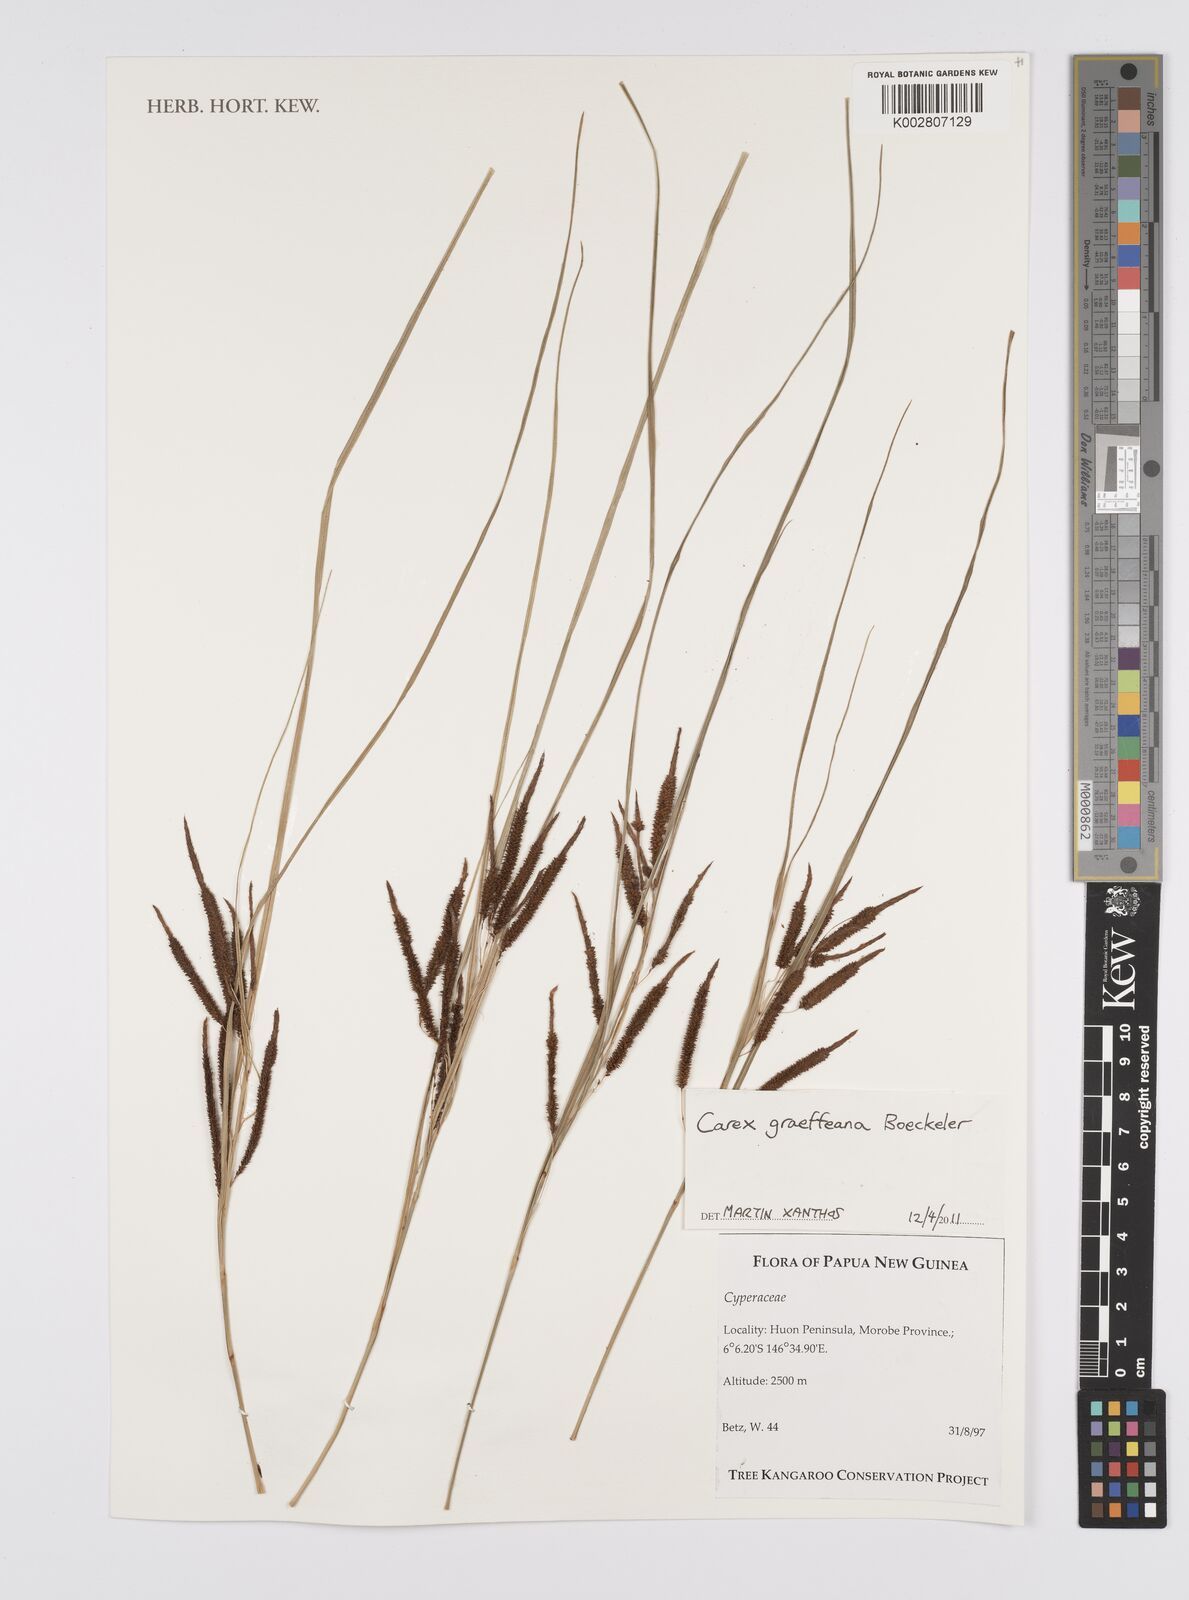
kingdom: Plantae
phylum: Tracheophyta
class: Liliopsida
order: Poales
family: Cyperaceae
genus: Carex
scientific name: Carex graeffeana
